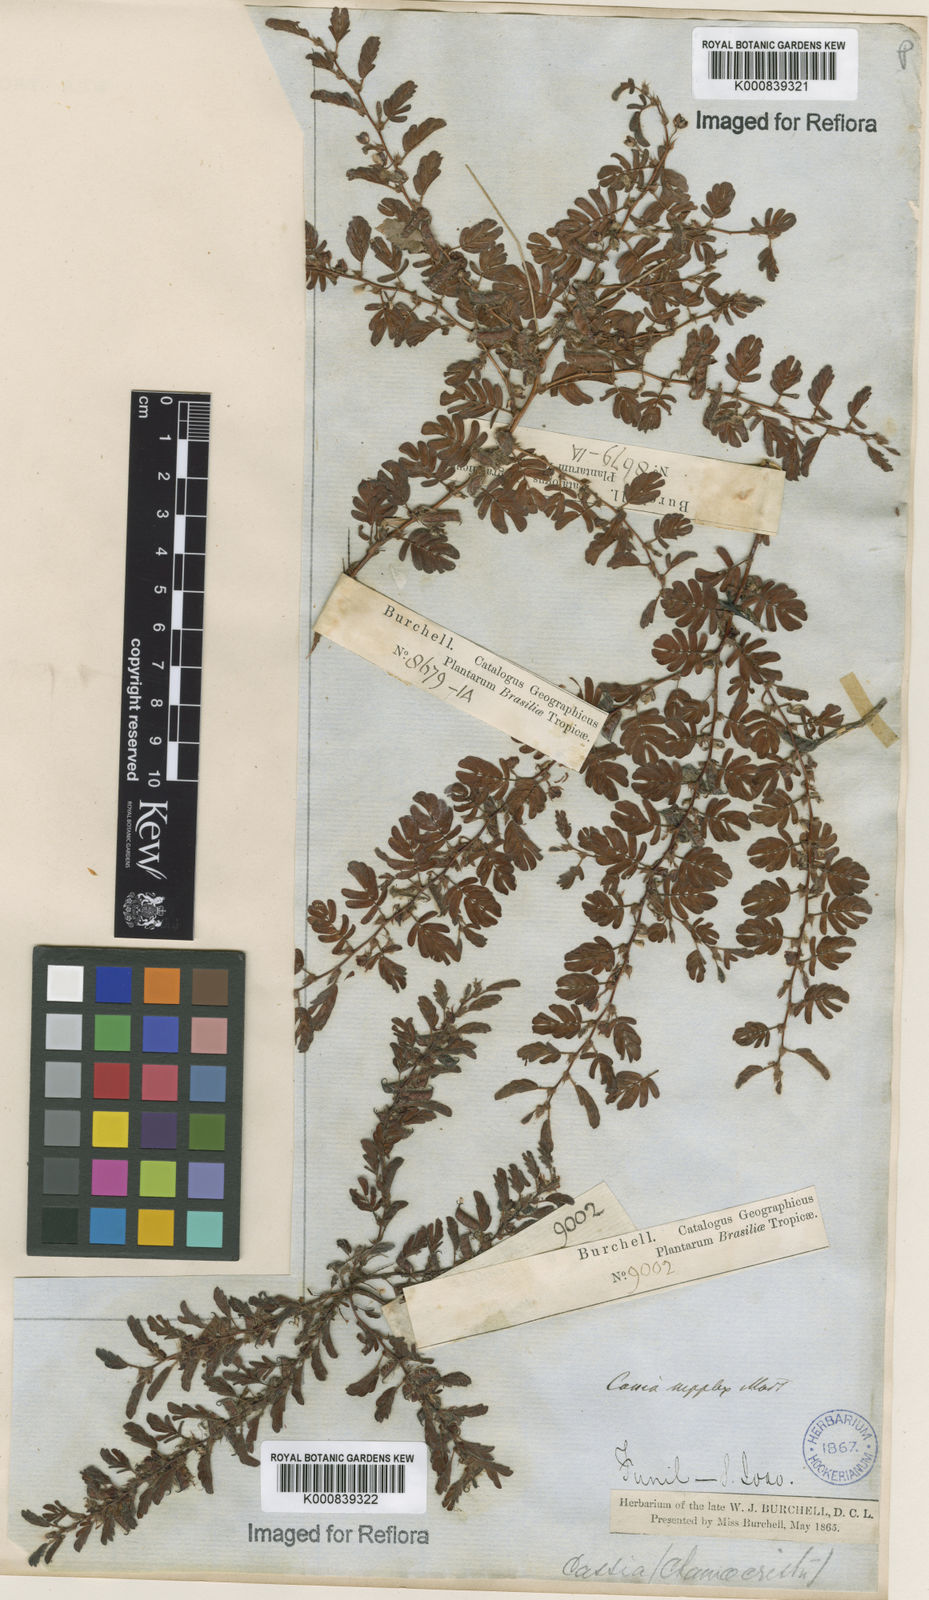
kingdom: Plantae
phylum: Tracheophyta
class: Magnoliopsida
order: Fabales
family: Fabaceae
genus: Chamaecrista
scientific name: Chamaecrista supplex
